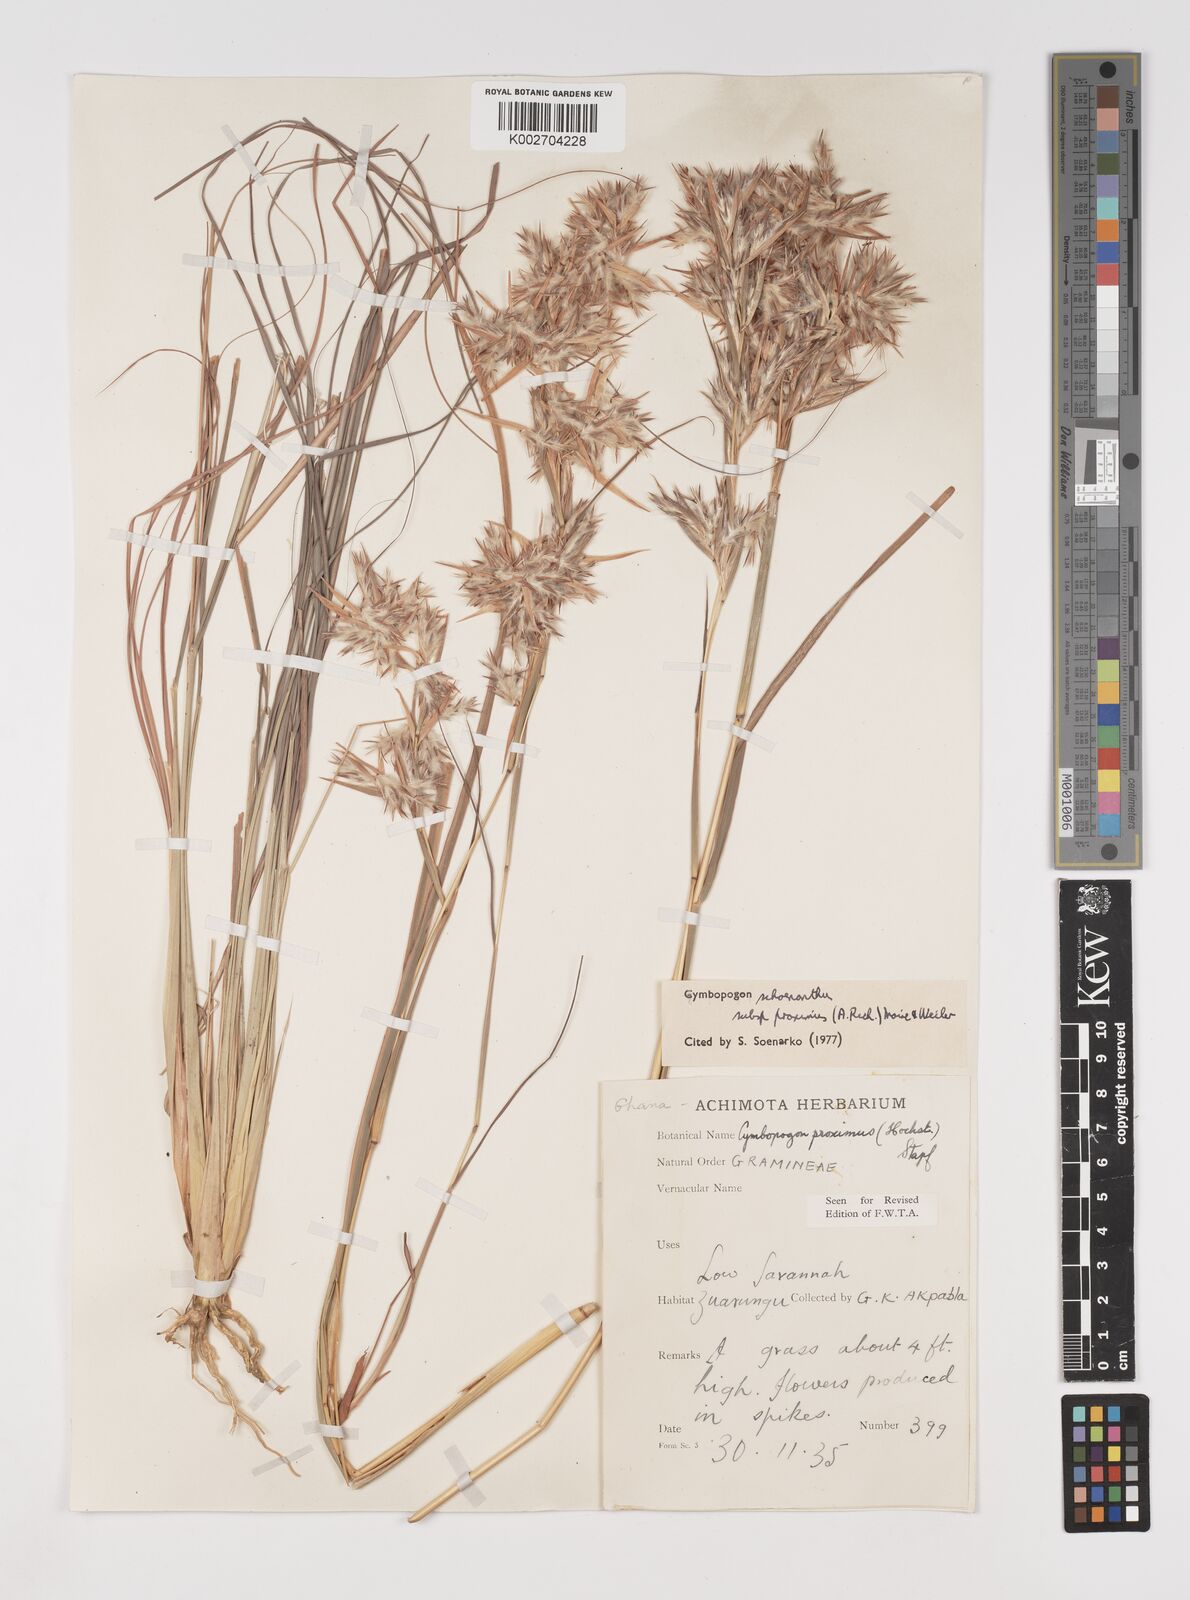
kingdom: Plantae
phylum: Tracheophyta
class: Liliopsida
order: Poales
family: Poaceae
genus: Cymbopogon
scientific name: Cymbopogon schoenanthus
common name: Geranium grass
